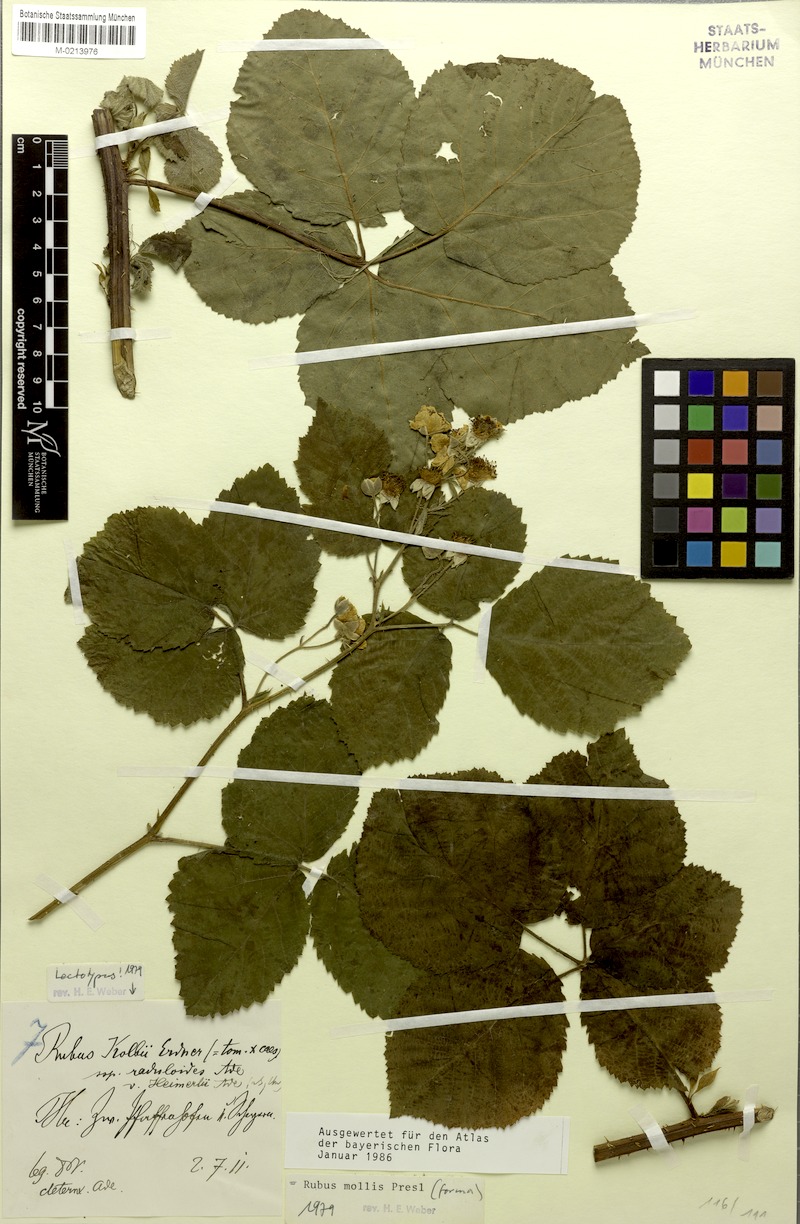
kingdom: Plantae
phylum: Tracheophyta
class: Magnoliopsida
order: Rosales
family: Rosaceae
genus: Rubus
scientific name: Rubus mollis
